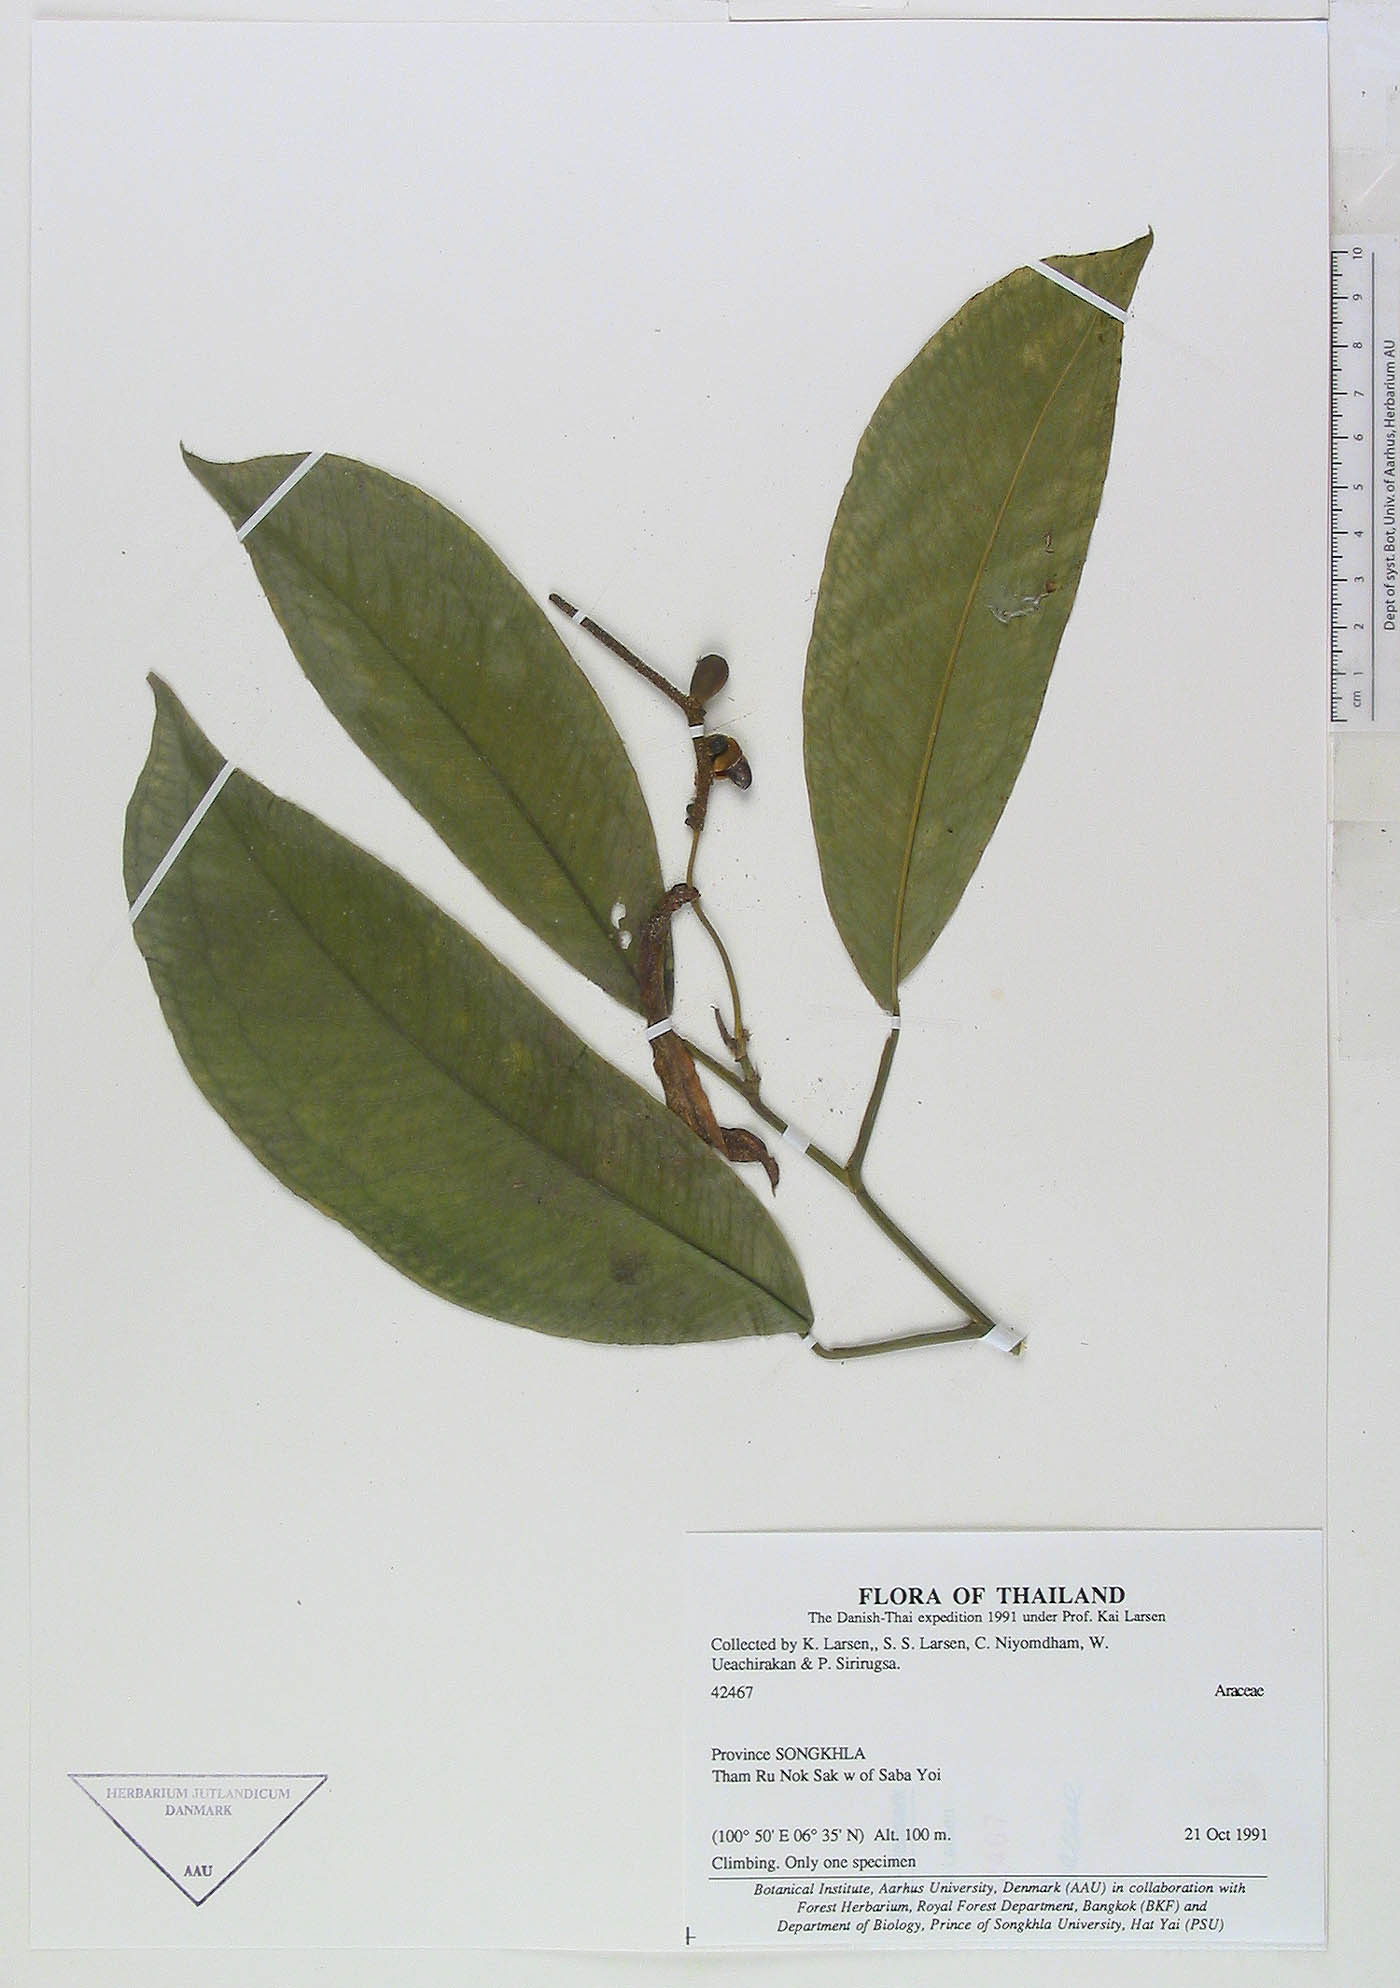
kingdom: Plantae
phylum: Tracheophyta
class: Magnoliopsida
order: Gentianales
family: Rubiaceae
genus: Adina
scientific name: Adina
